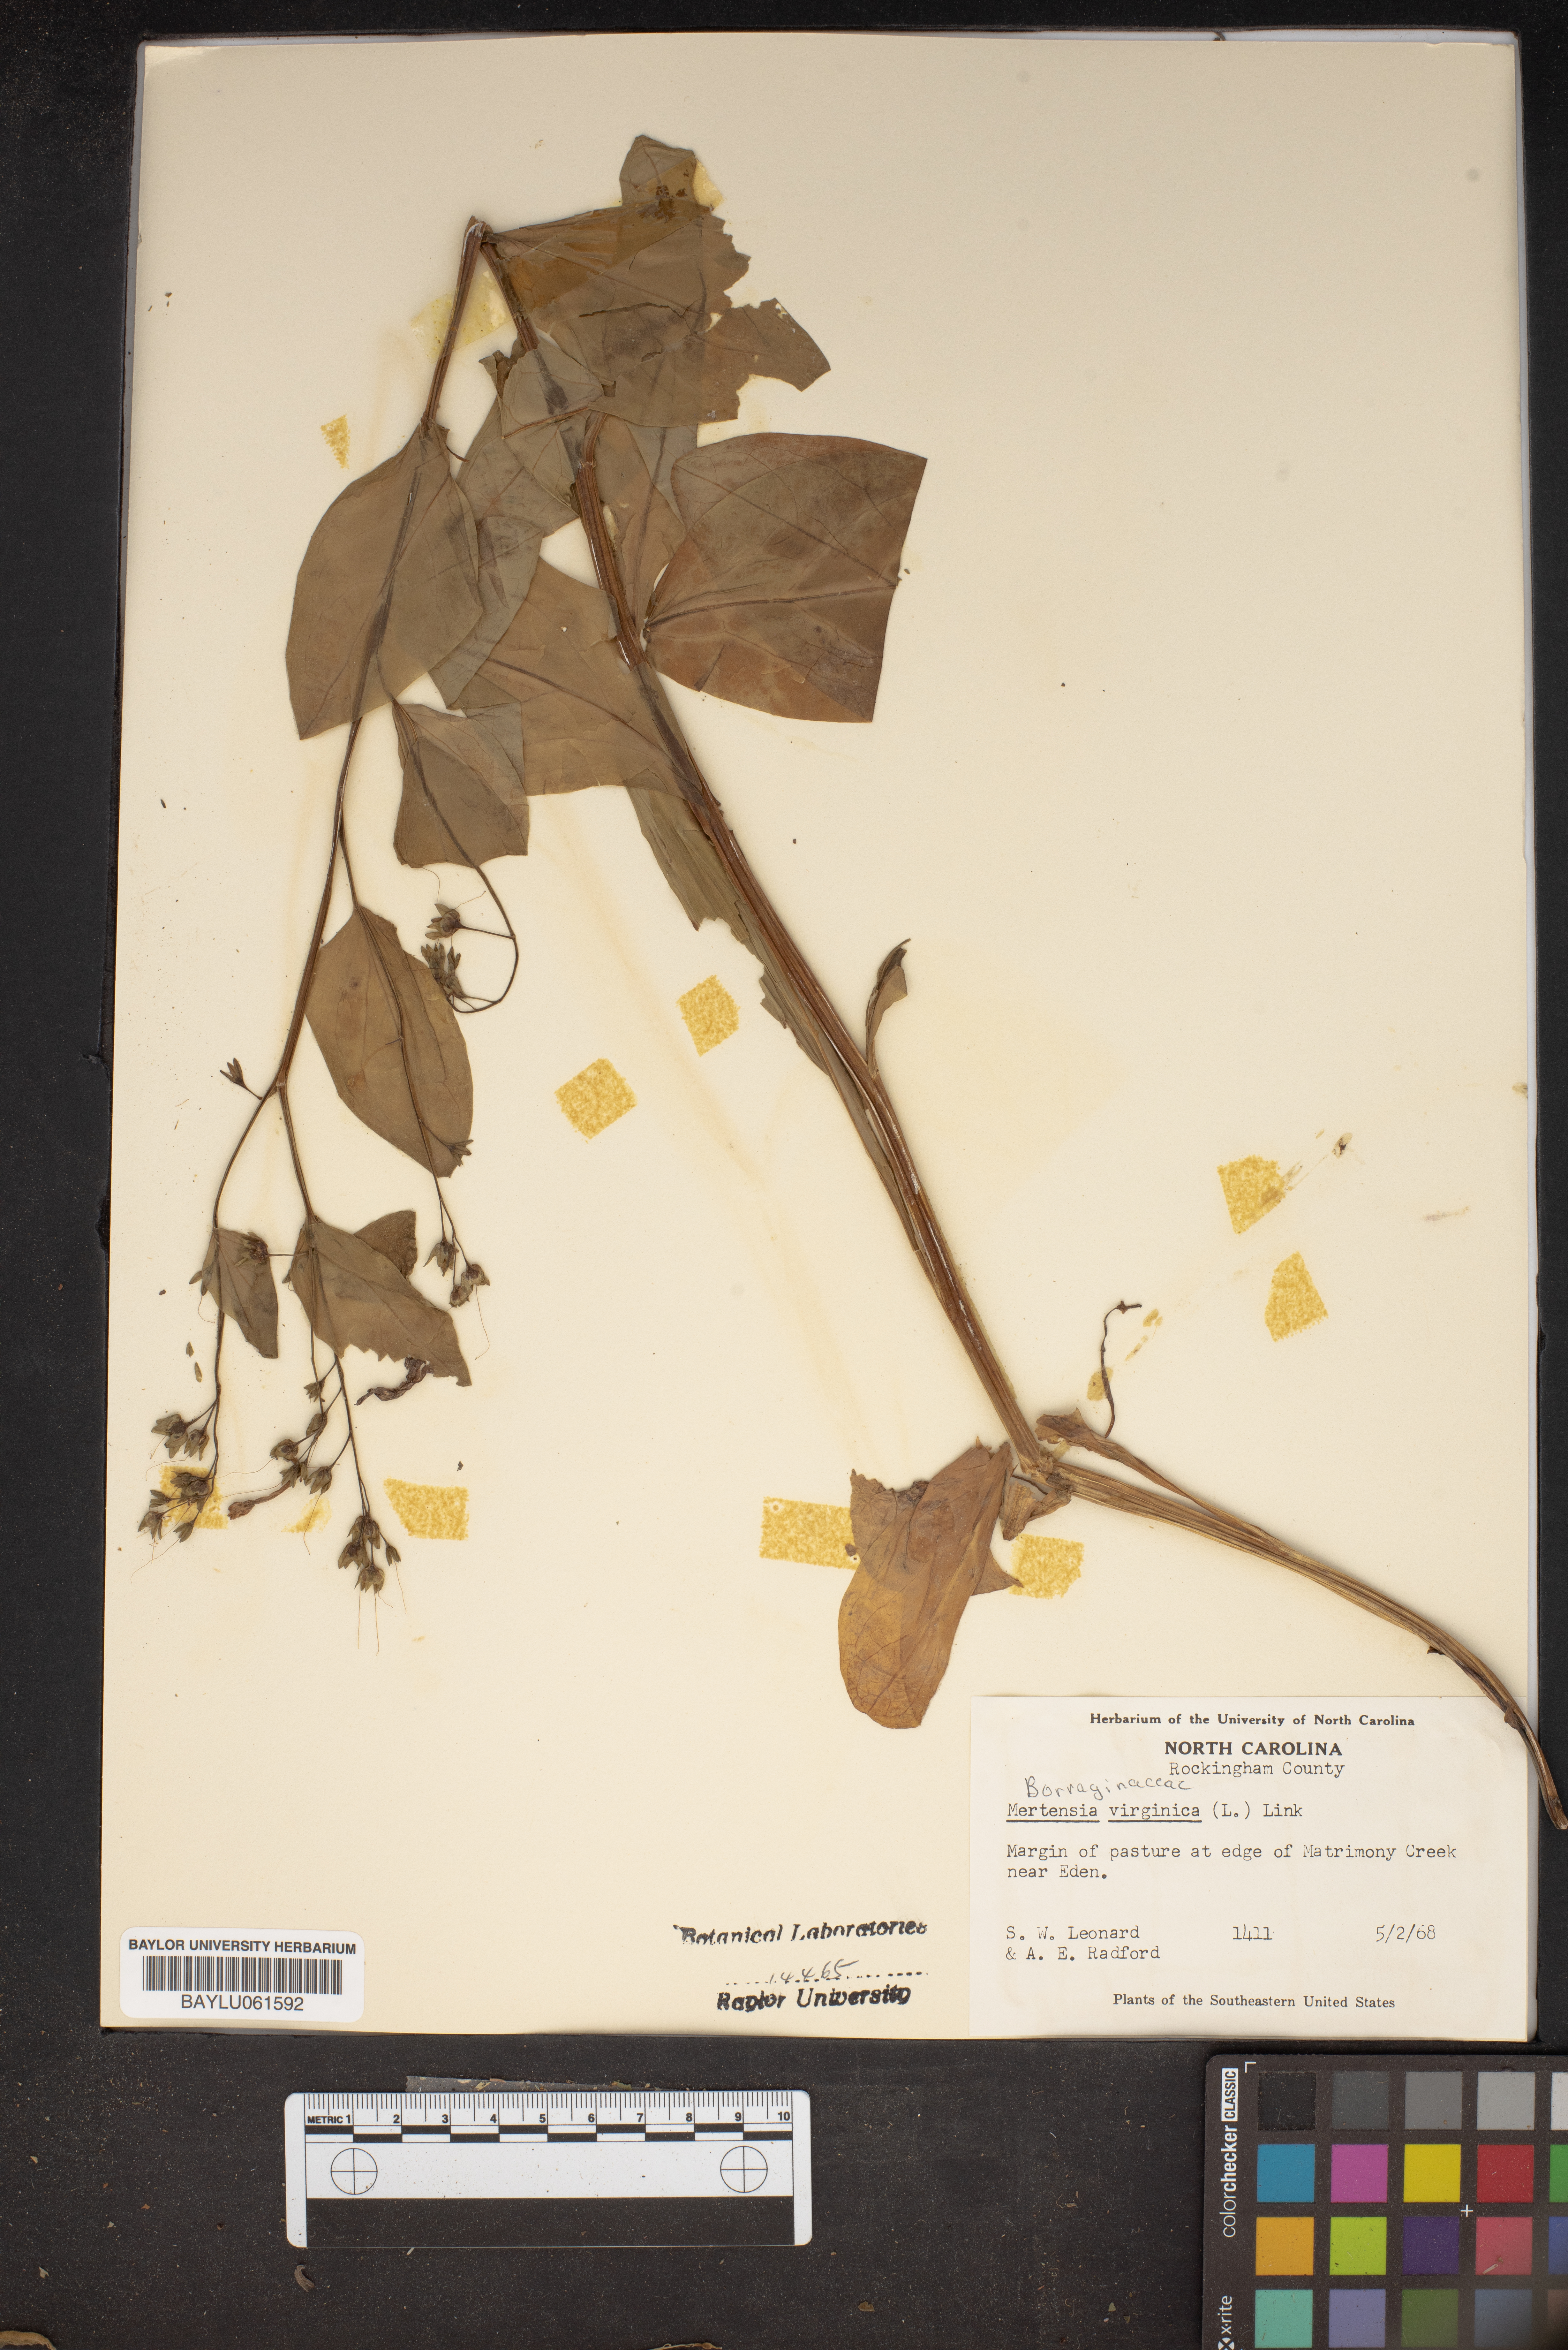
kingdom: Plantae
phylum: Tracheophyta
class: Magnoliopsida
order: Boraginales
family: Boraginaceae
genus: Mertensia
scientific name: Mertensia virginica
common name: Virginia bluebells
